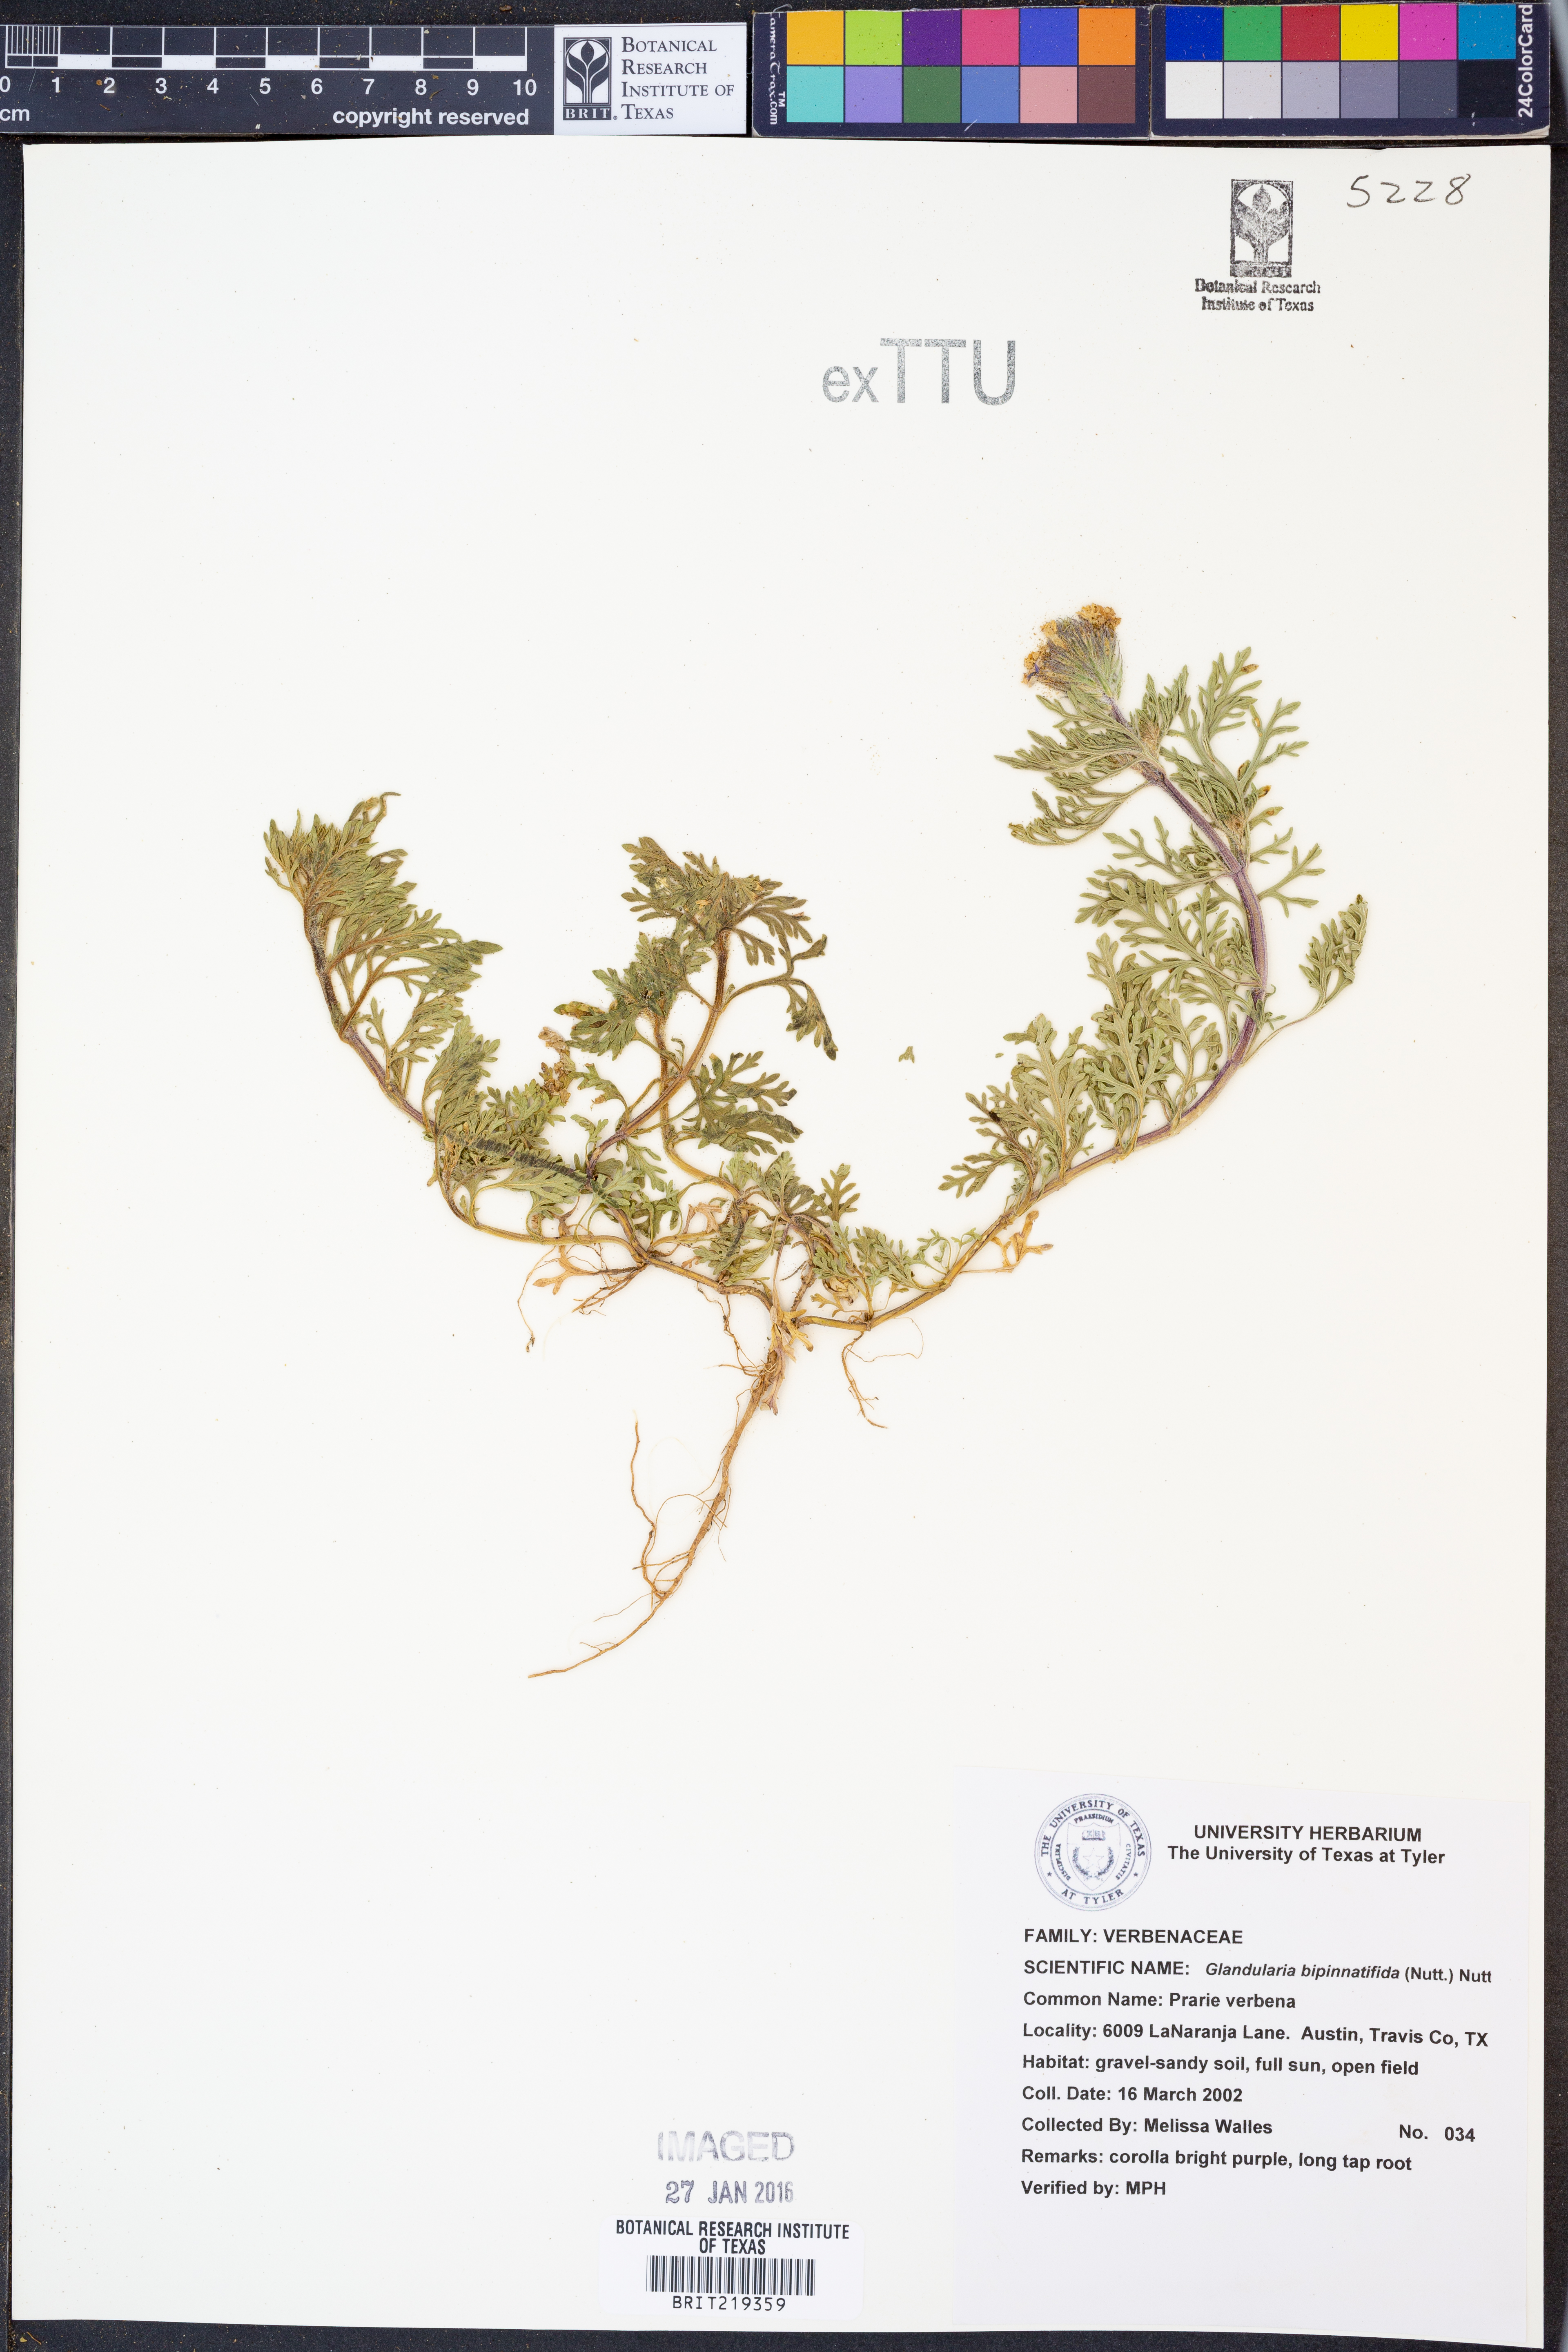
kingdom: Plantae
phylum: Tracheophyta
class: Magnoliopsida
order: Lamiales
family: Verbenaceae
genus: Verbena
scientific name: Verbena bipinnatifida
